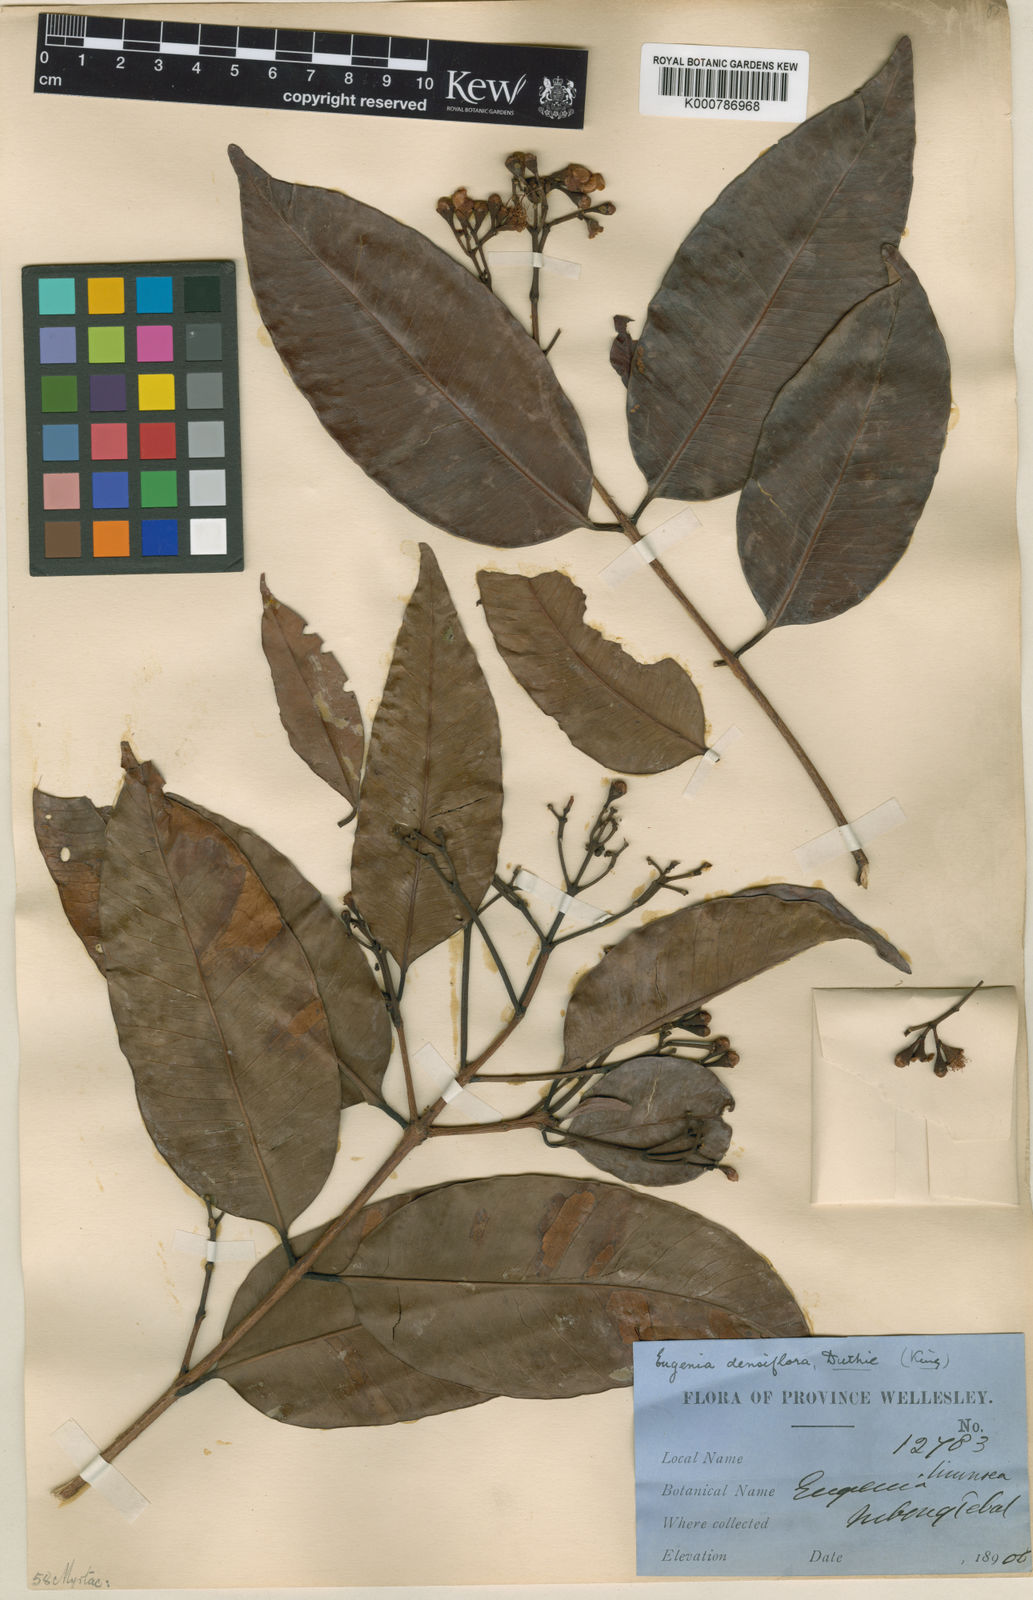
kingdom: Plantae
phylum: Tracheophyta
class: Magnoliopsida
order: Myrtales
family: Myrtaceae
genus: Syzygium
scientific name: Syzygium
